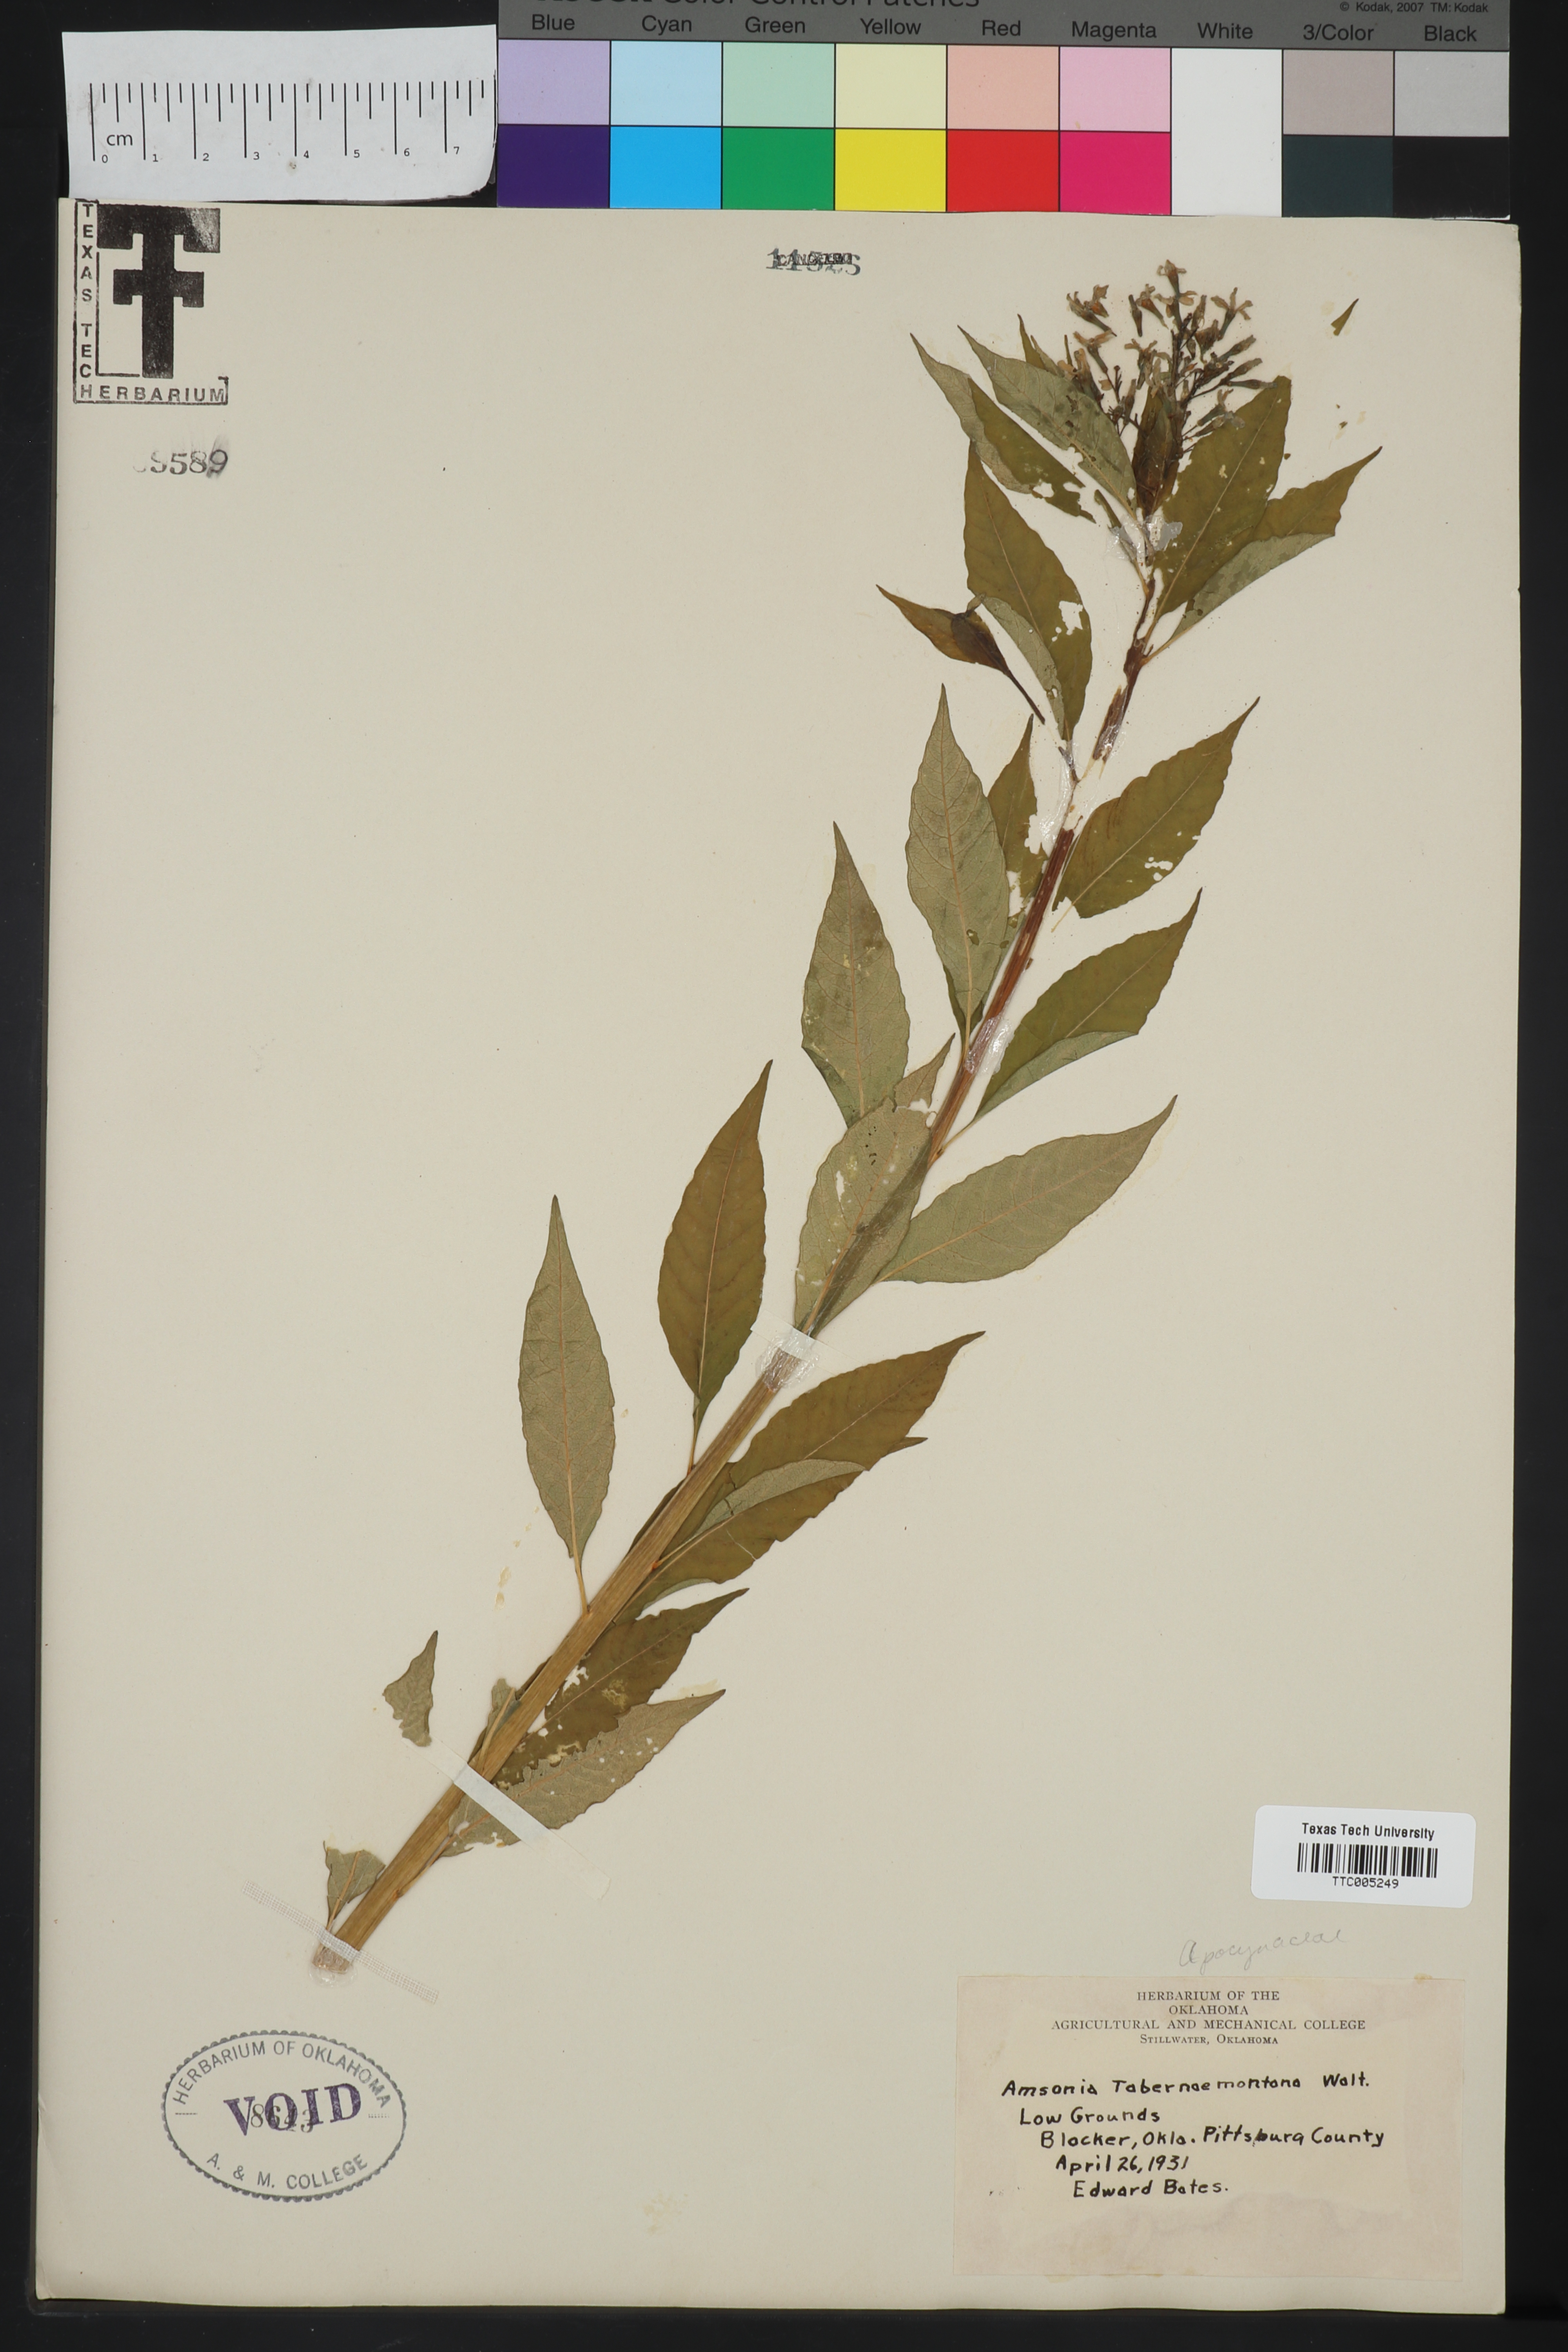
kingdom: Plantae
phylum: Tracheophyta
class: Magnoliopsida
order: Gentianales
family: Apocynaceae
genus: Amsonia
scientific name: Amsonia tabernaemontana
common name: Texas-star
